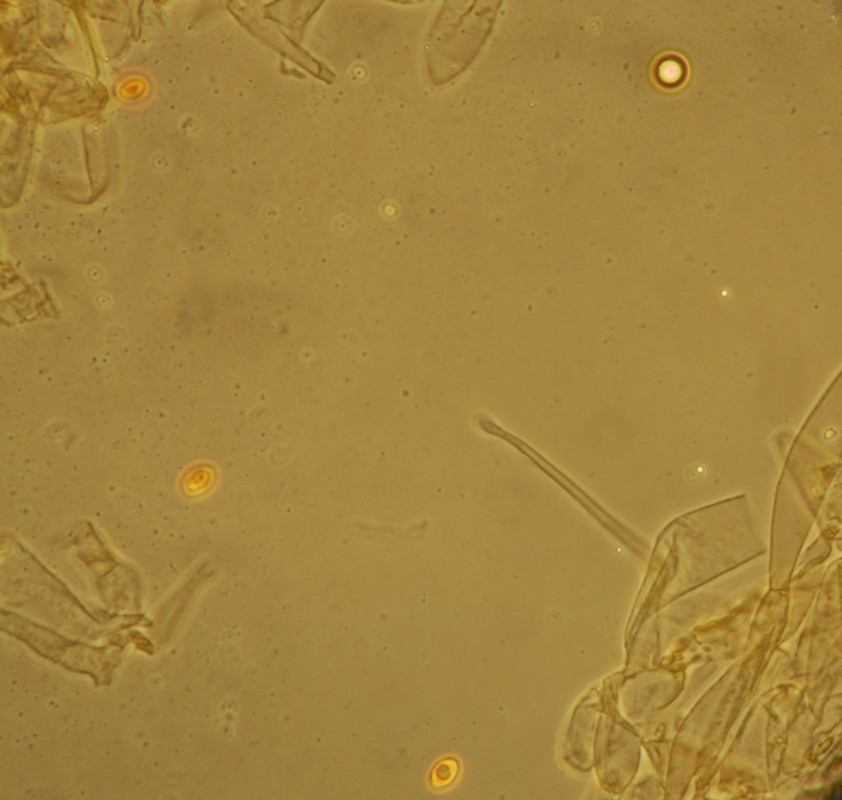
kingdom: Fungi
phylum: Basidiomycota
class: Agaricomycetes
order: Agaricales
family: Hymenogastraceae
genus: Galerina
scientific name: Galerina vittiformis
